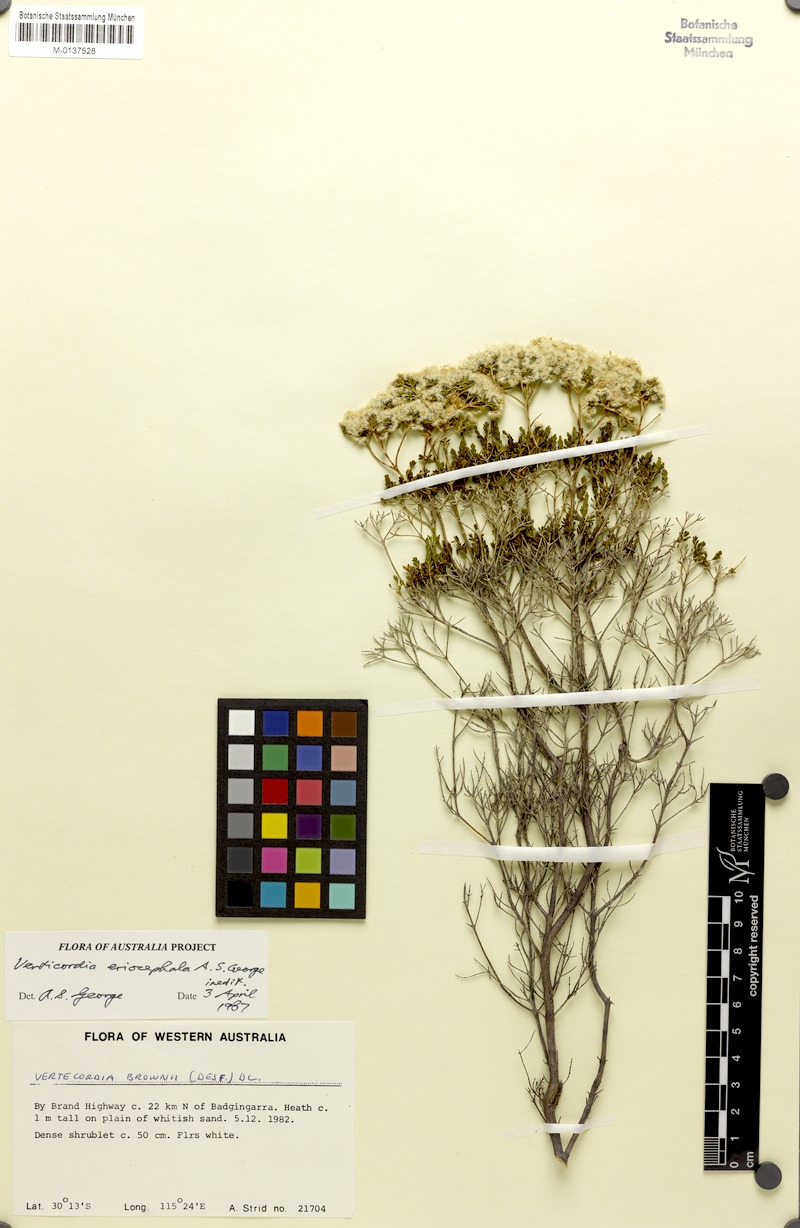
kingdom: Plantae
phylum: Tracheophyta
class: Magnoliopsida
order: Myrtales
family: Myrtaceae
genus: Verticordia
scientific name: Verticordia eriocephala
